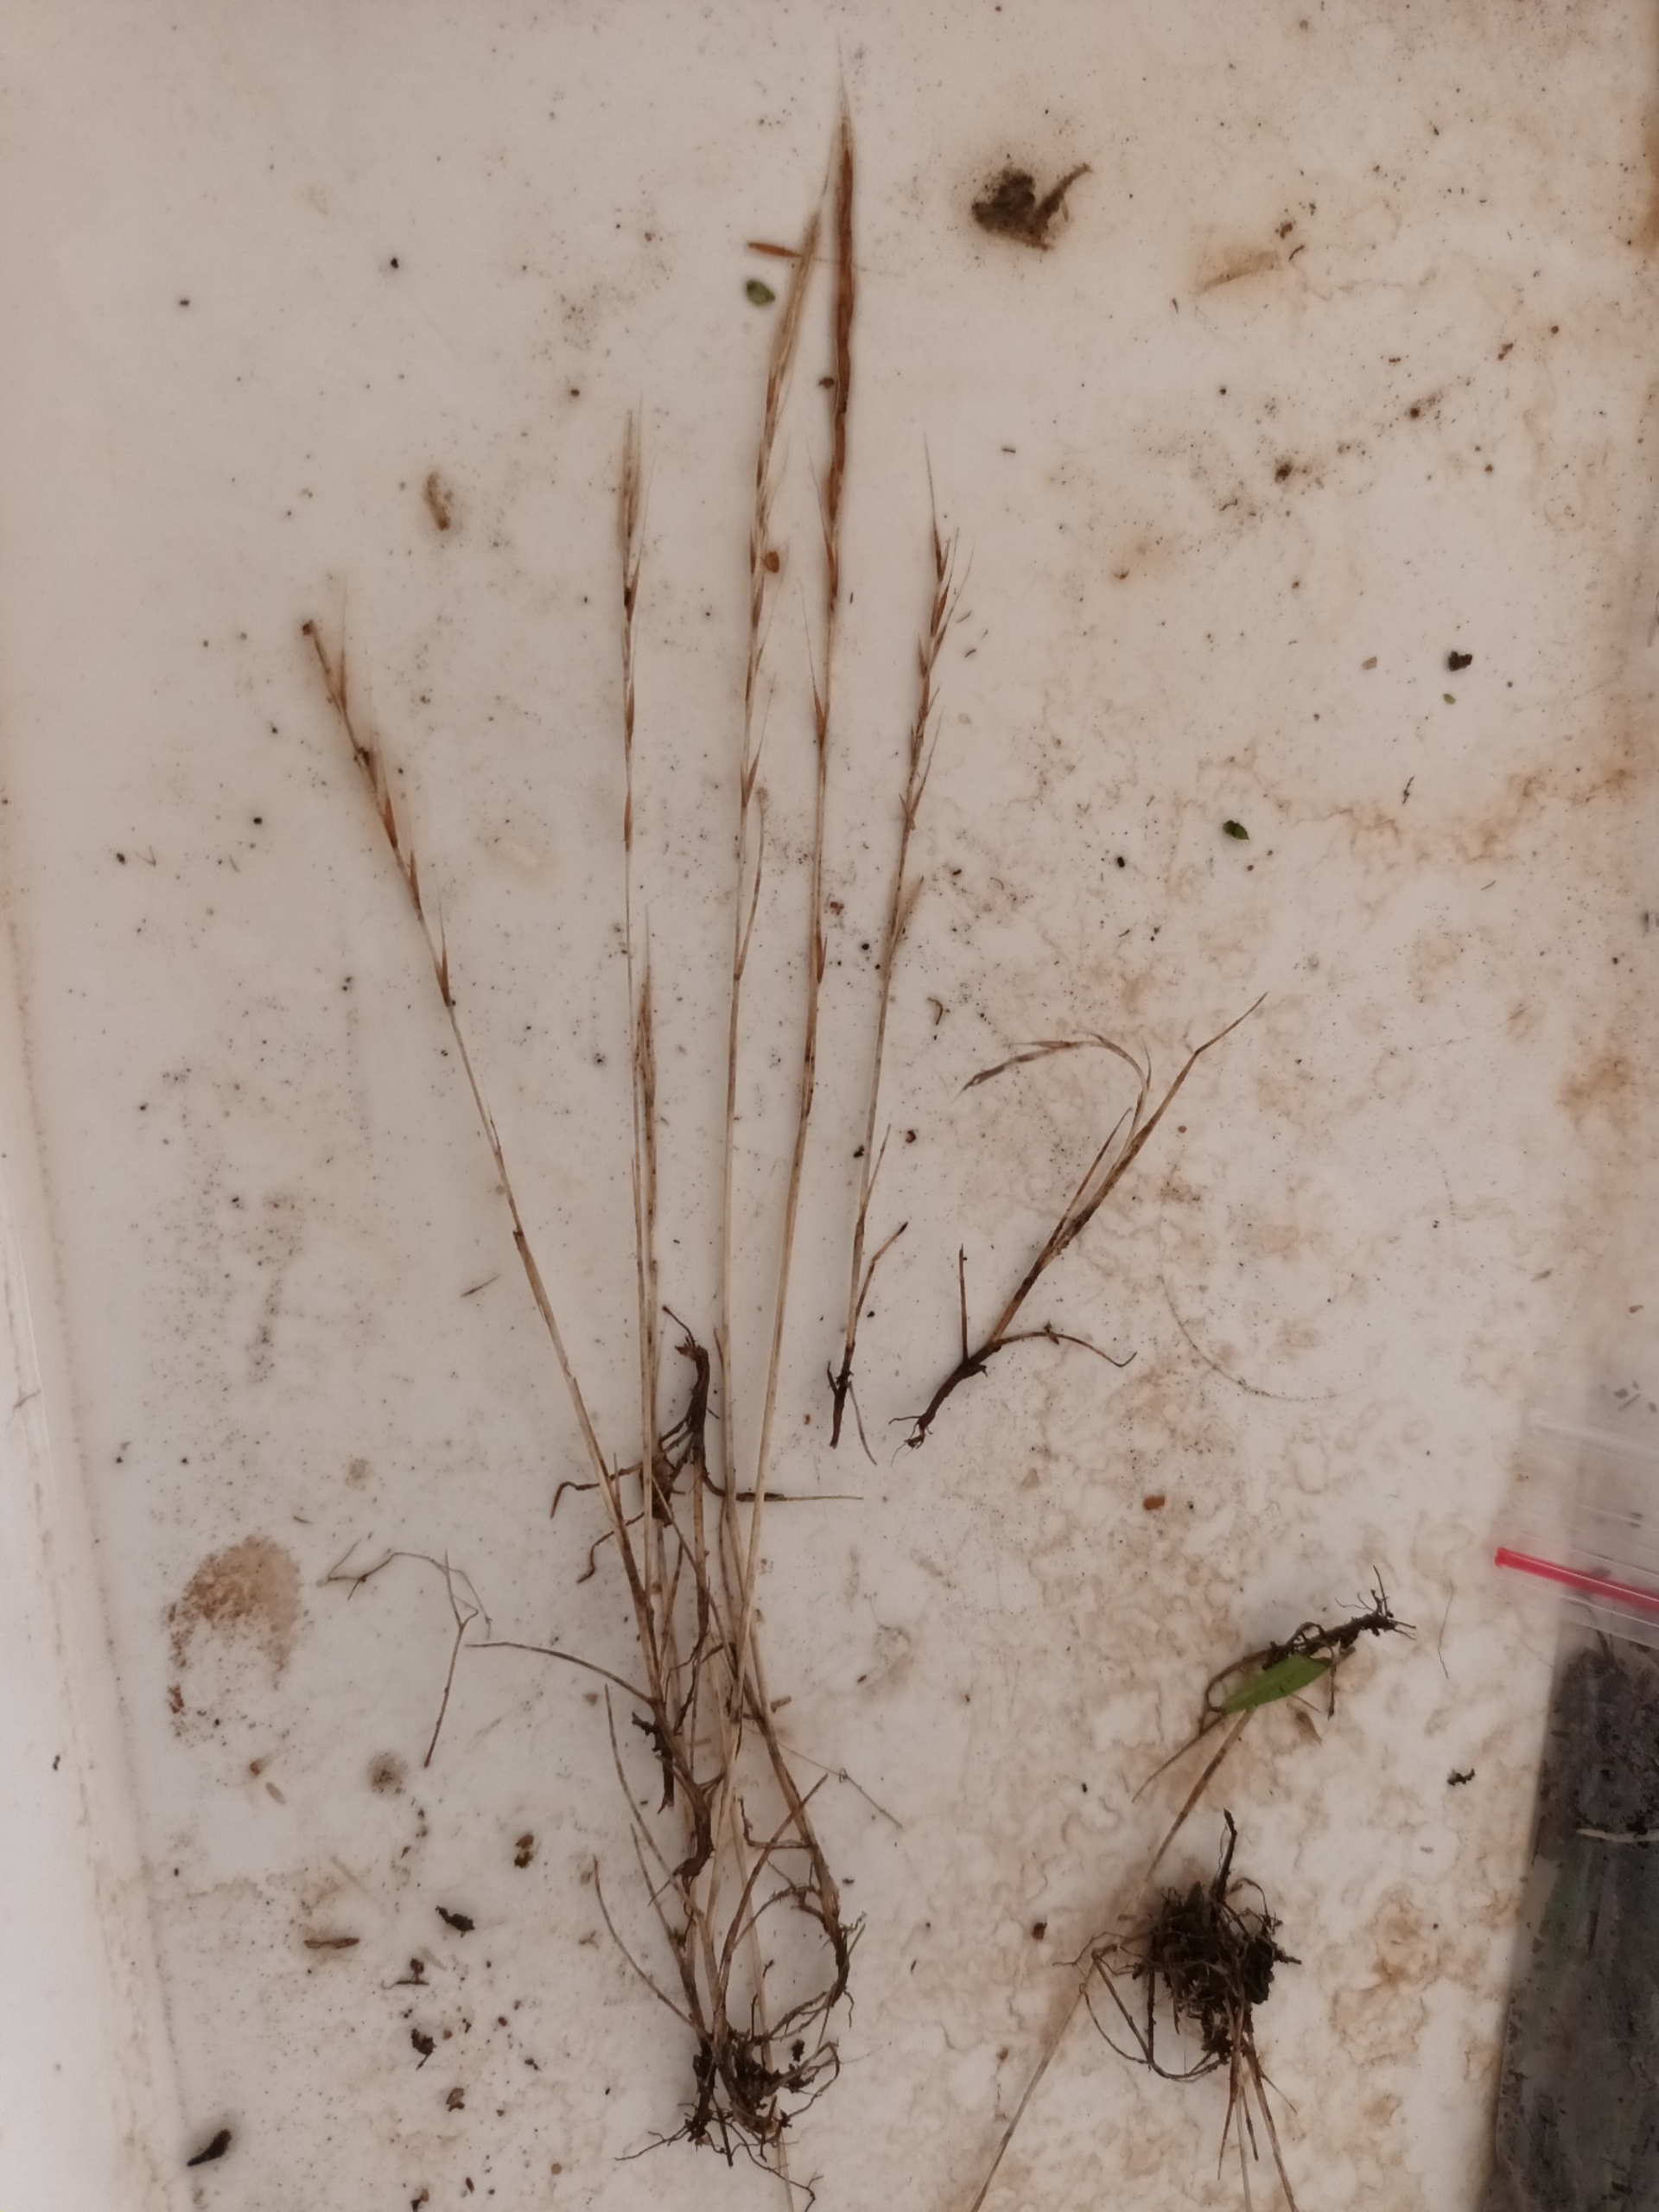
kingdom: Plantae
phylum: Tracheophyta
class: Liliopsida
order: Poales
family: Poaceae
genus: Festuca
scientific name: Festuca myuros
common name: Stor væselhale
